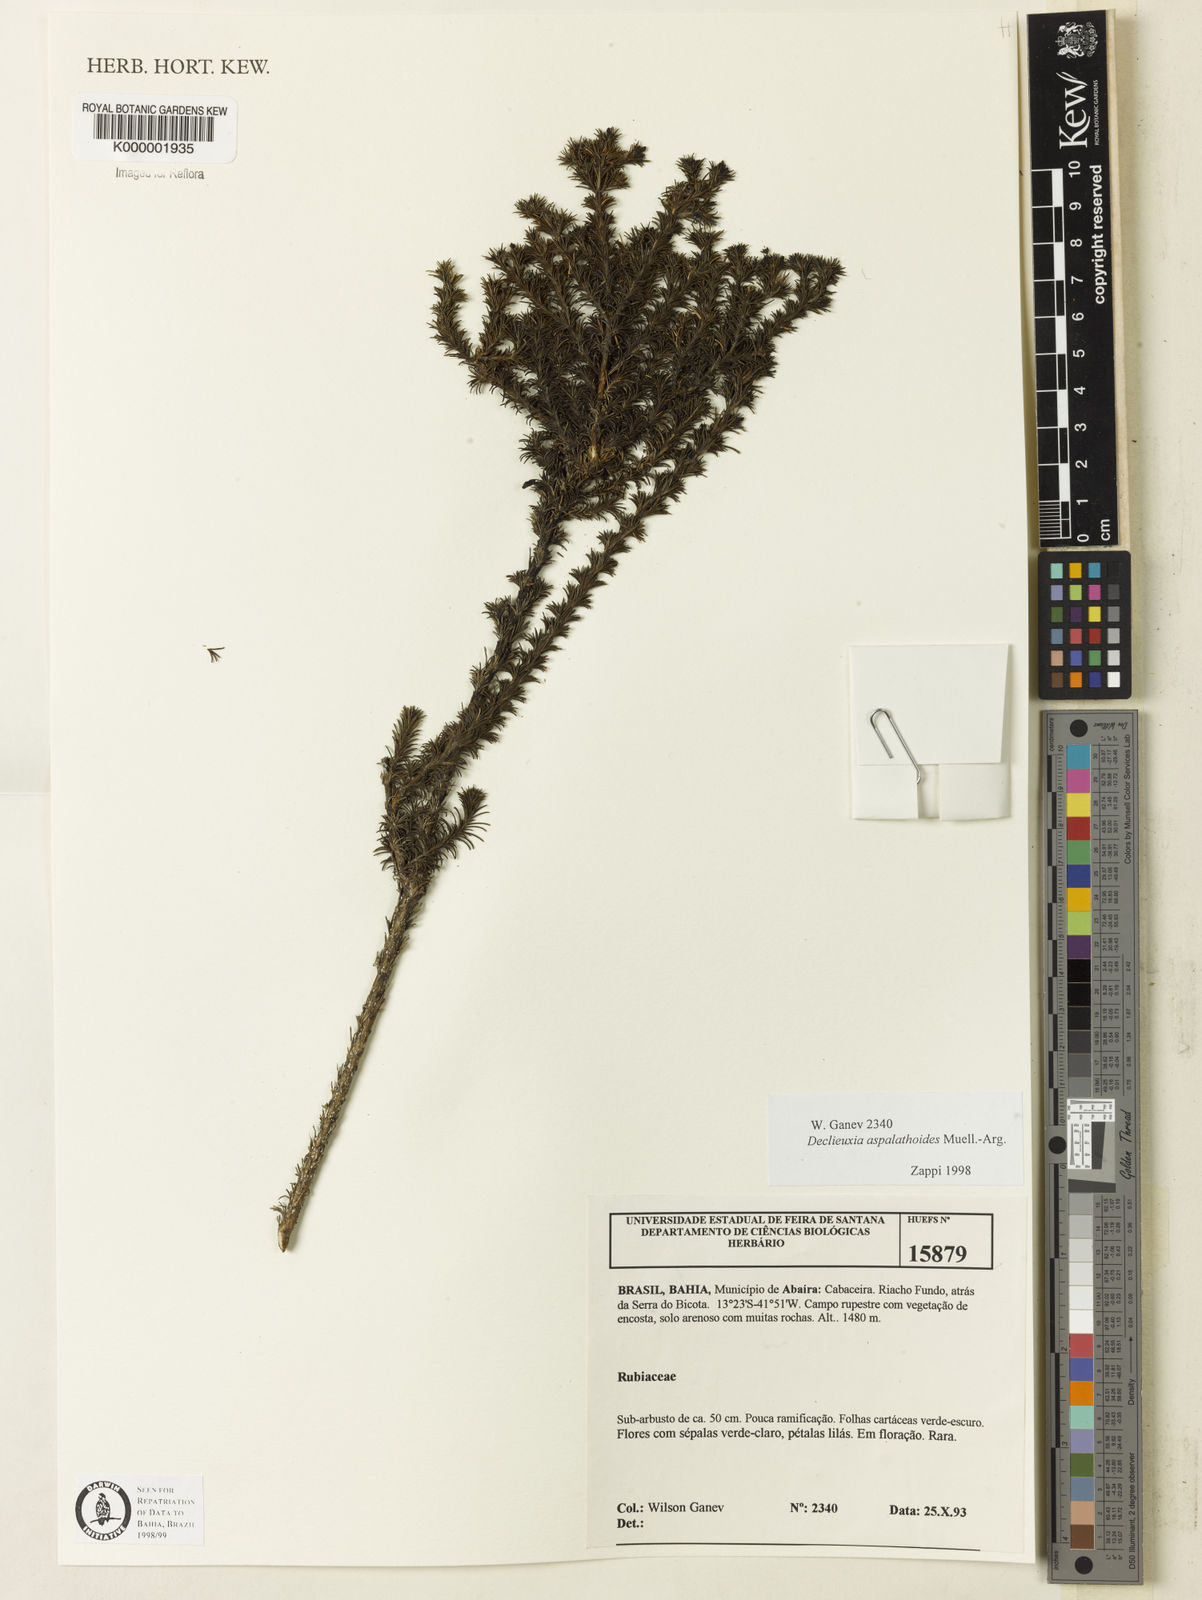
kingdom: Plantae
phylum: Tracheophyta
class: Magnoliopsida
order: Gentianales
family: Rubiaceae
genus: Declieuxia
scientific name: Declieuxia aspalathoides
